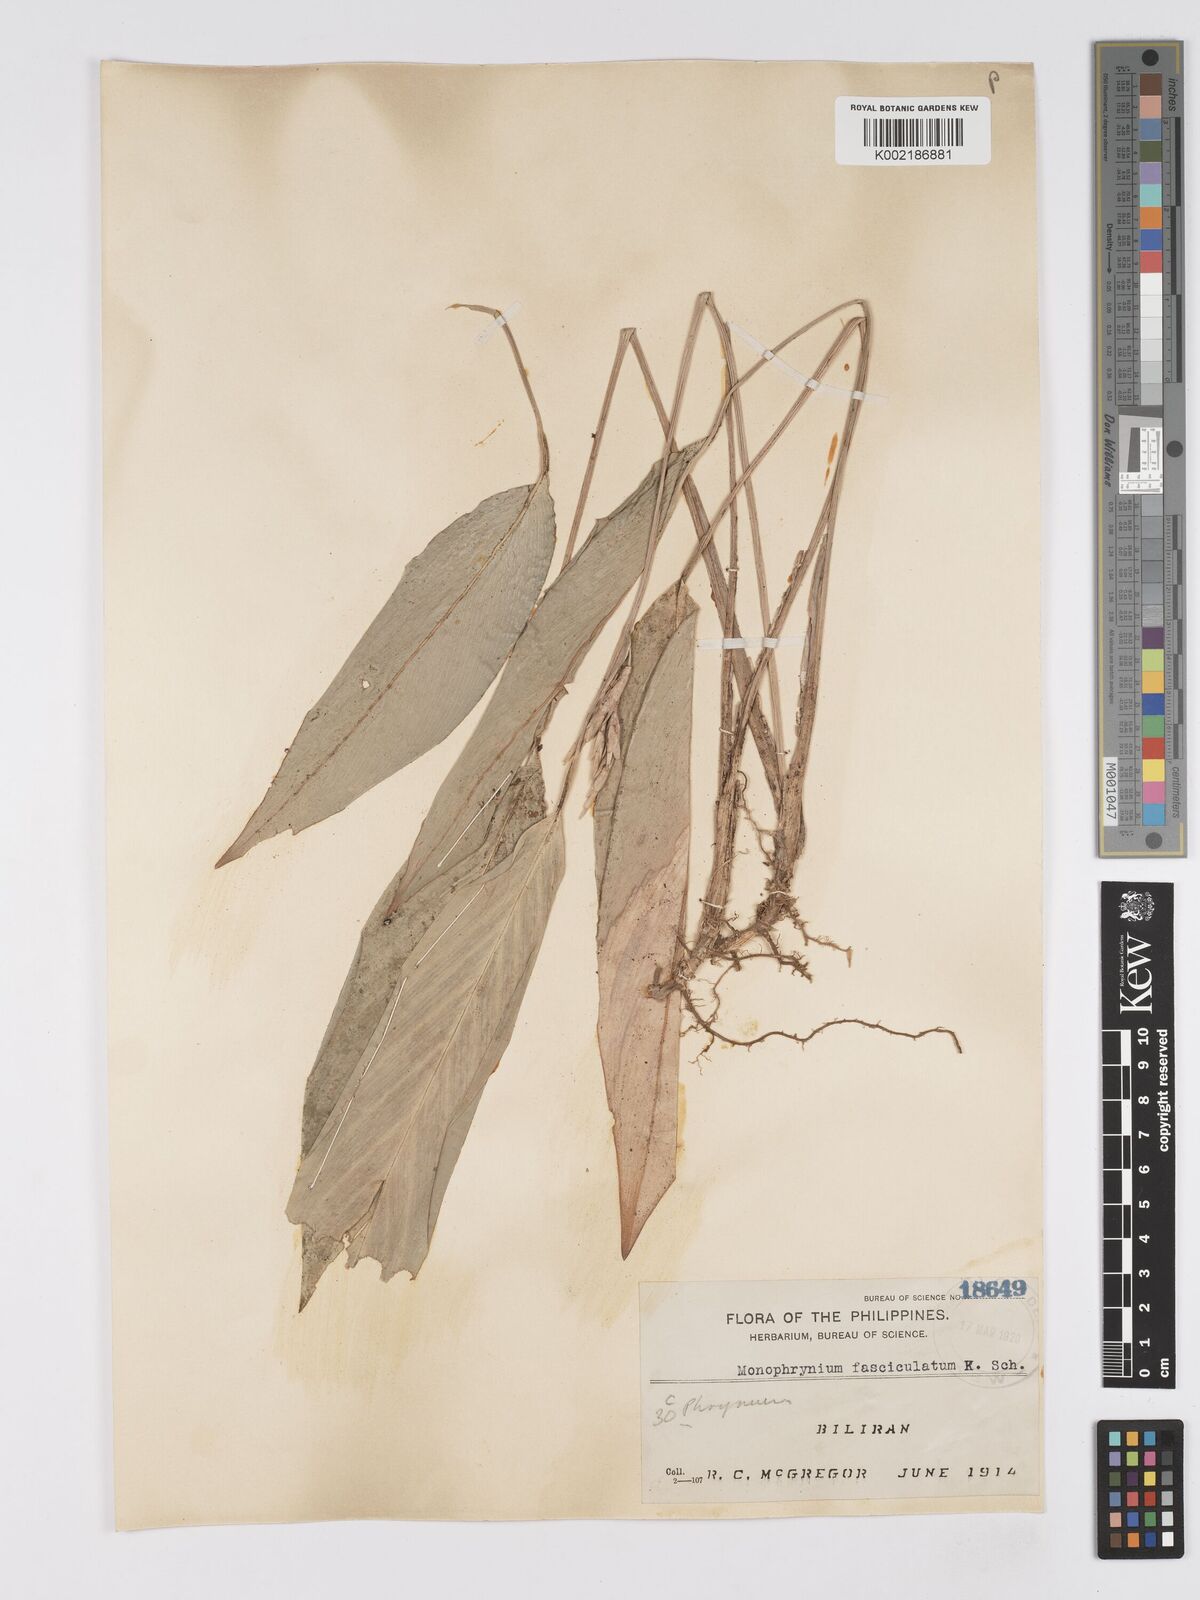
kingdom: Plantae
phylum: Tracheophyta
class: Liliopsida
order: Zingiberales
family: Marantaceae
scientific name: Marantaceae
